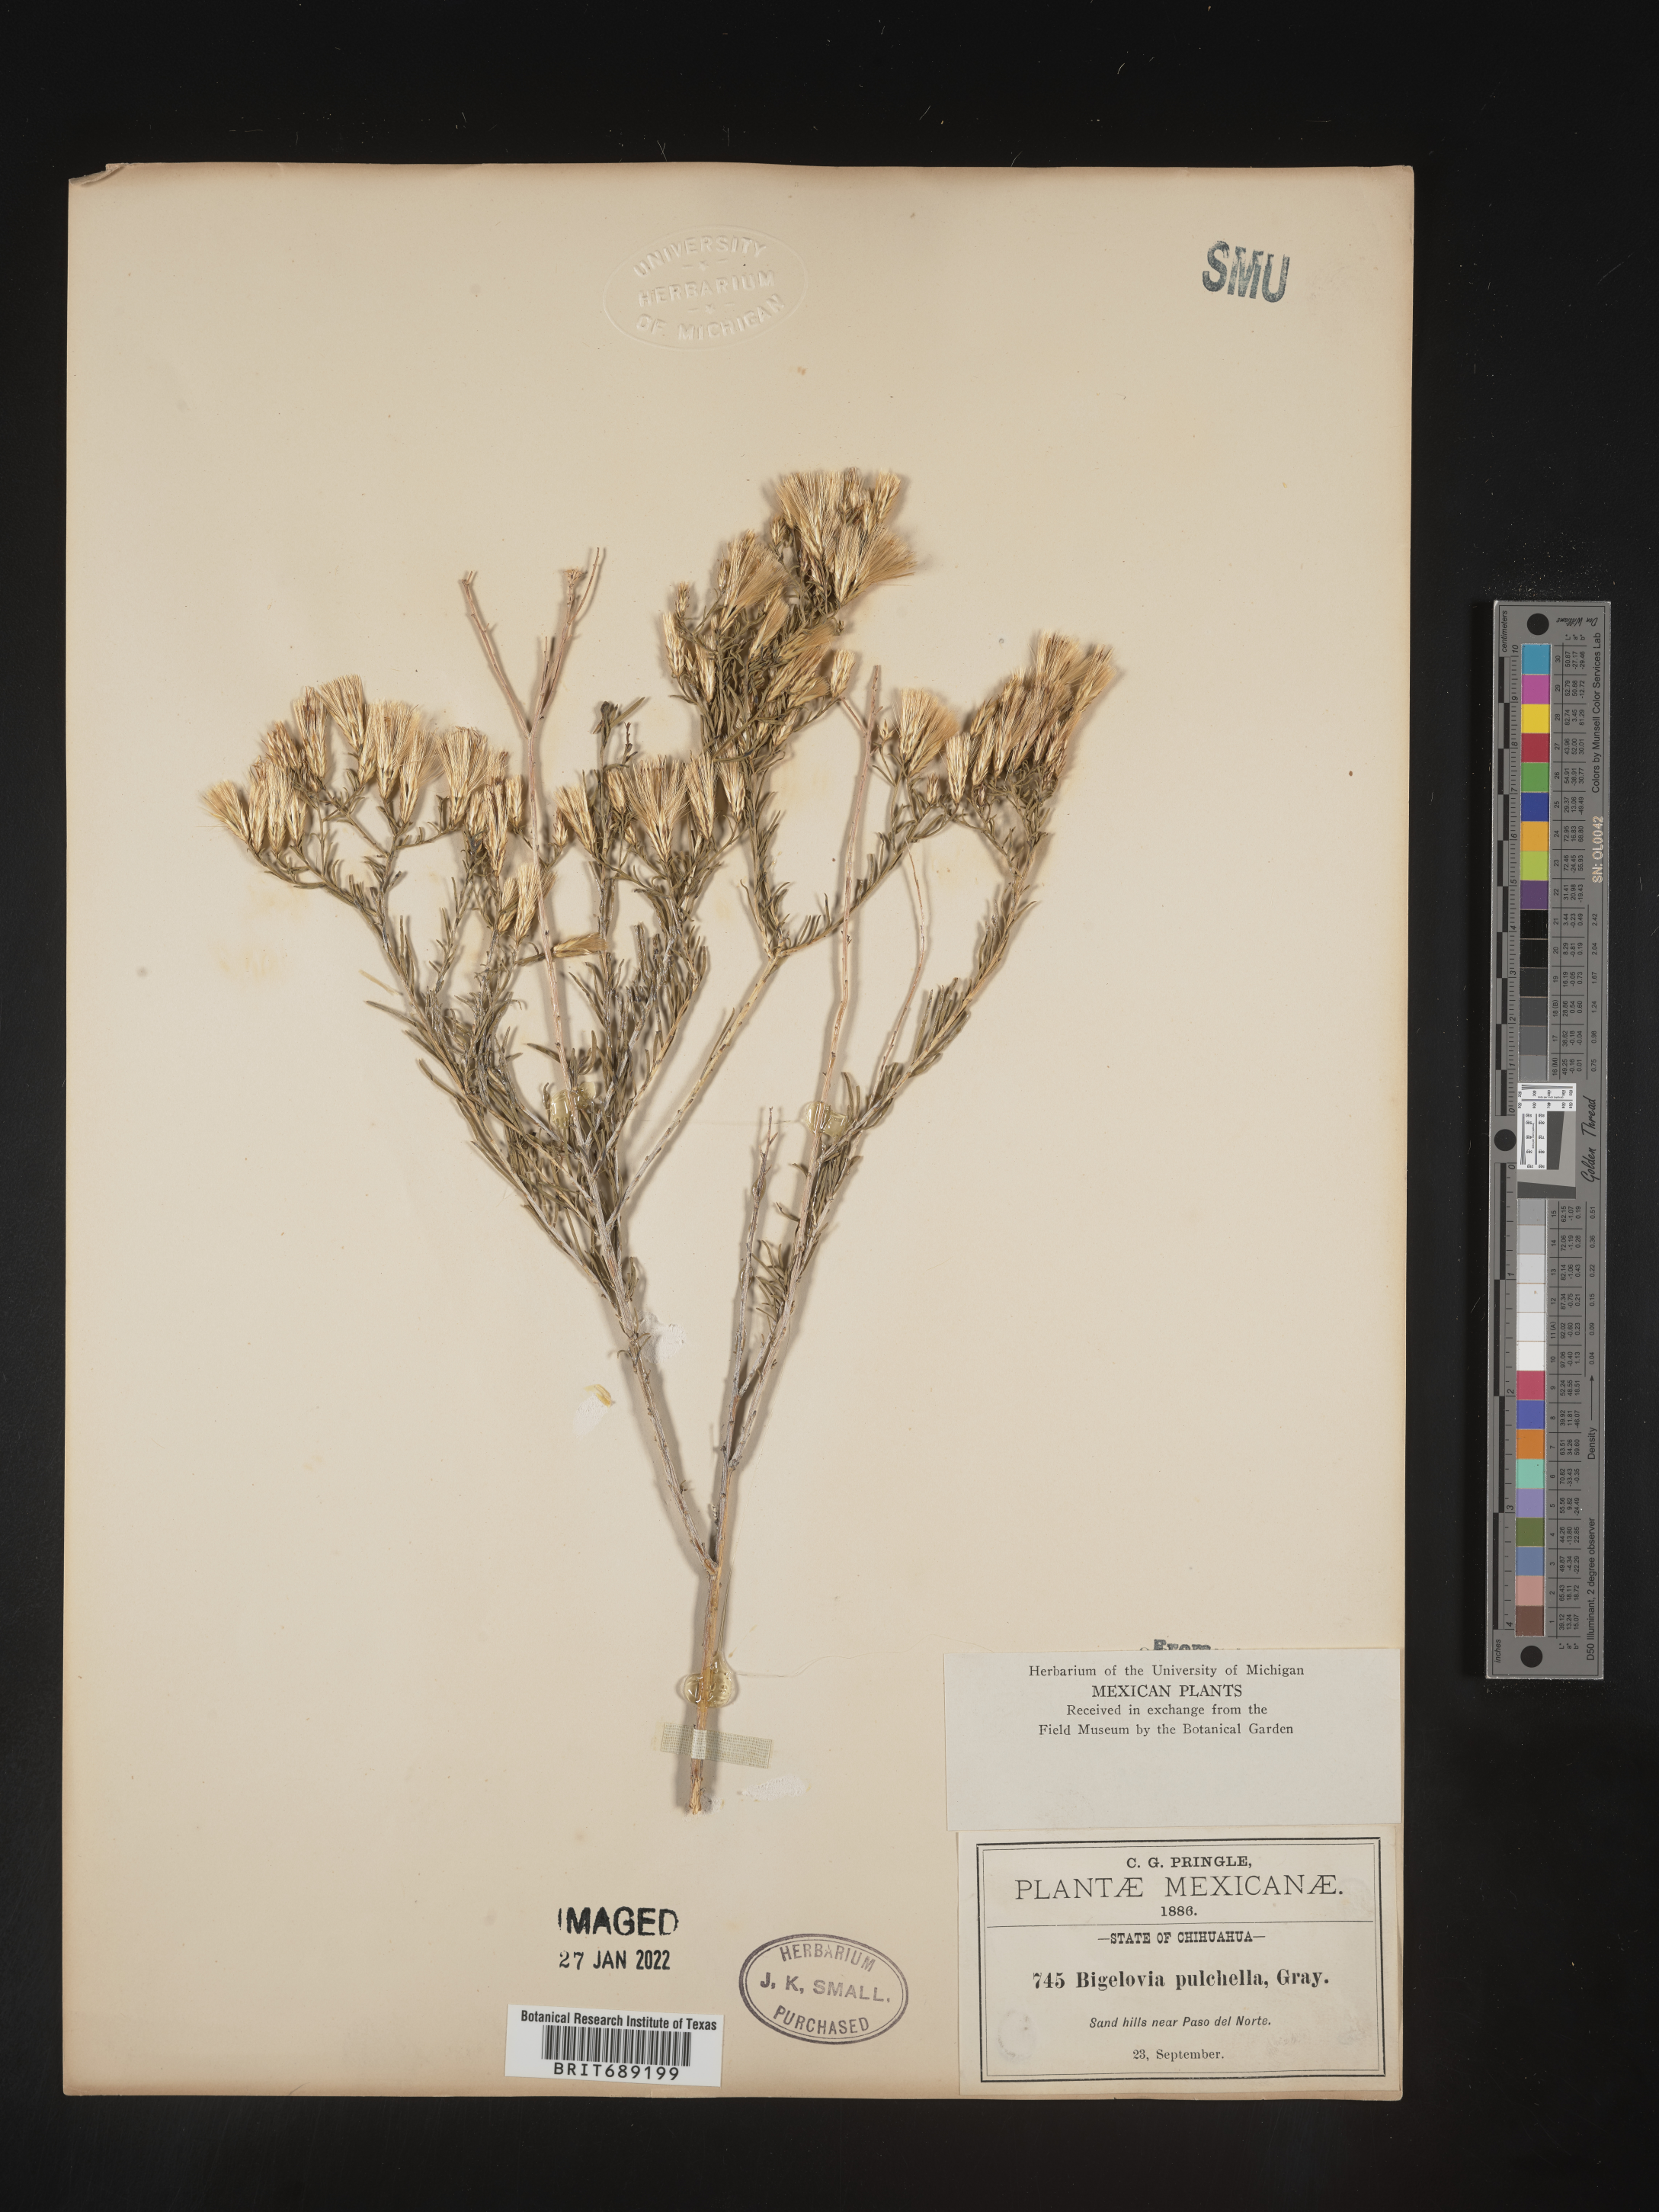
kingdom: Plantae
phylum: Tracheophyta
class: Magnoliopsida
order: Asterales
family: Asteraceae
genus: Chrysothamnus
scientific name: Chrysothamnus
